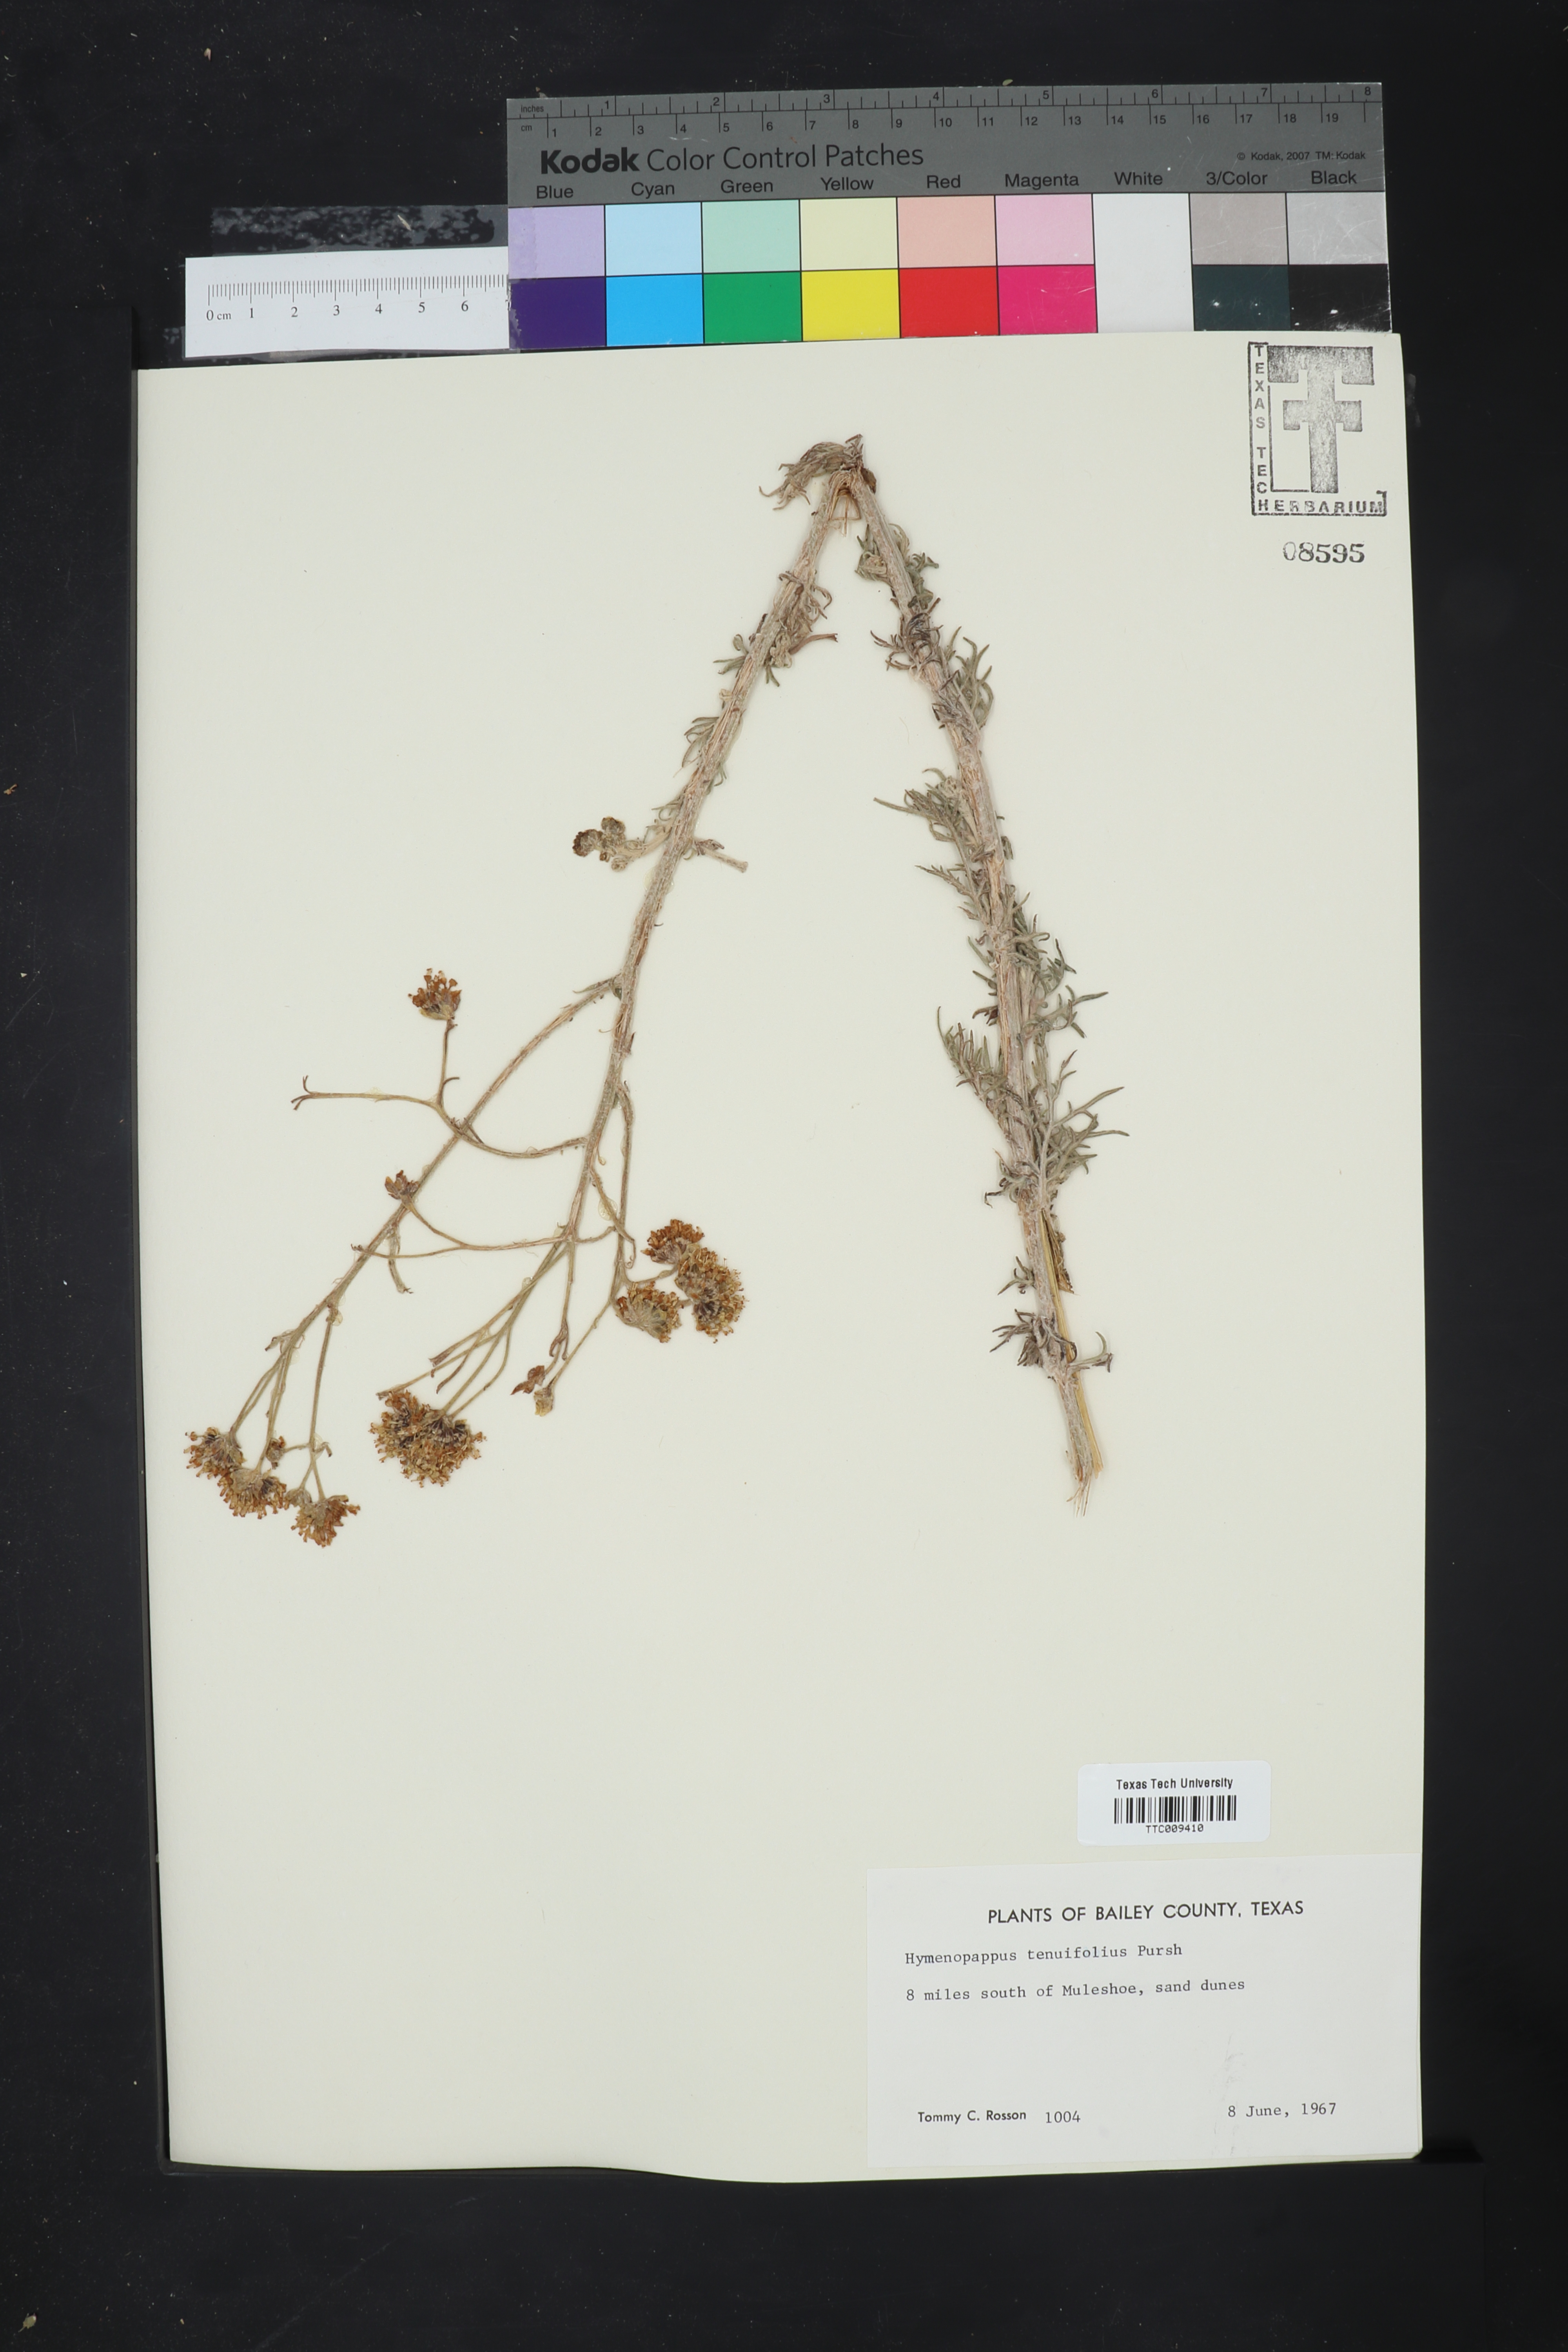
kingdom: Plantae
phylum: Tracheophyta
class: Magnoliopsida
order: Asterales
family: Asteraceae
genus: Hymenopappus
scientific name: Hymenopappus tenuifolius
